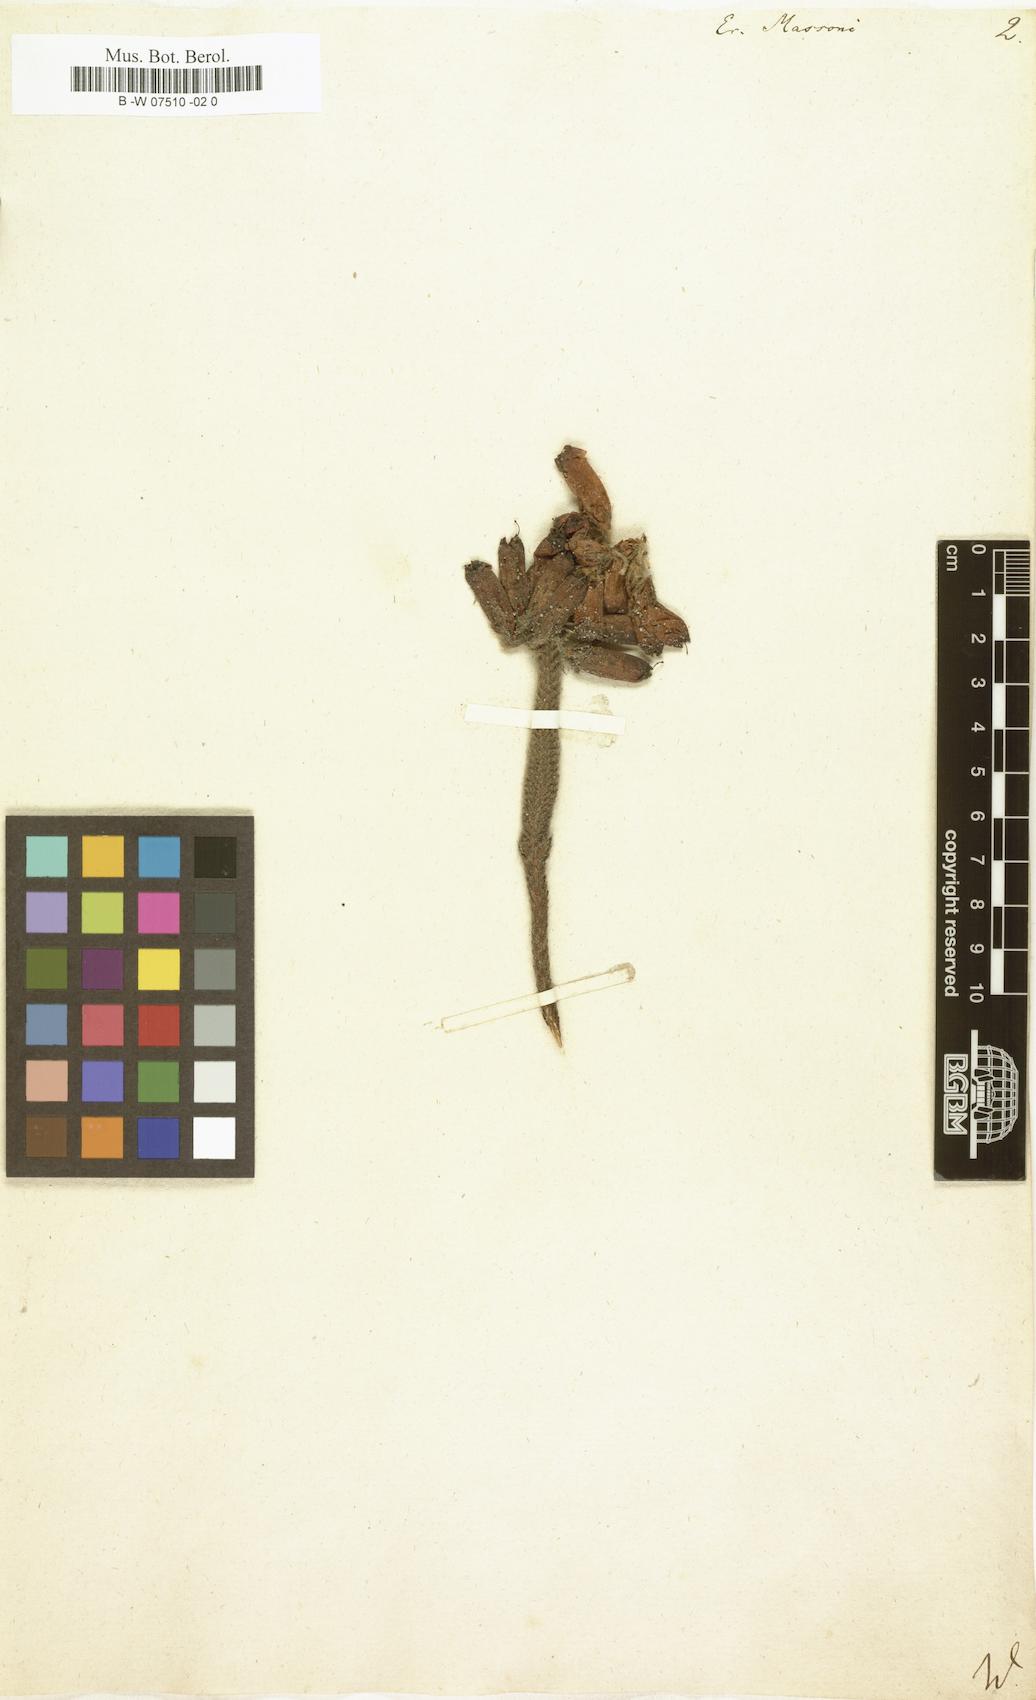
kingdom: Plantae
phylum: Tracheophyta
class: Magnoliopsida
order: Ericales
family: Ericaceae
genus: Erica
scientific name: Erica massonii
